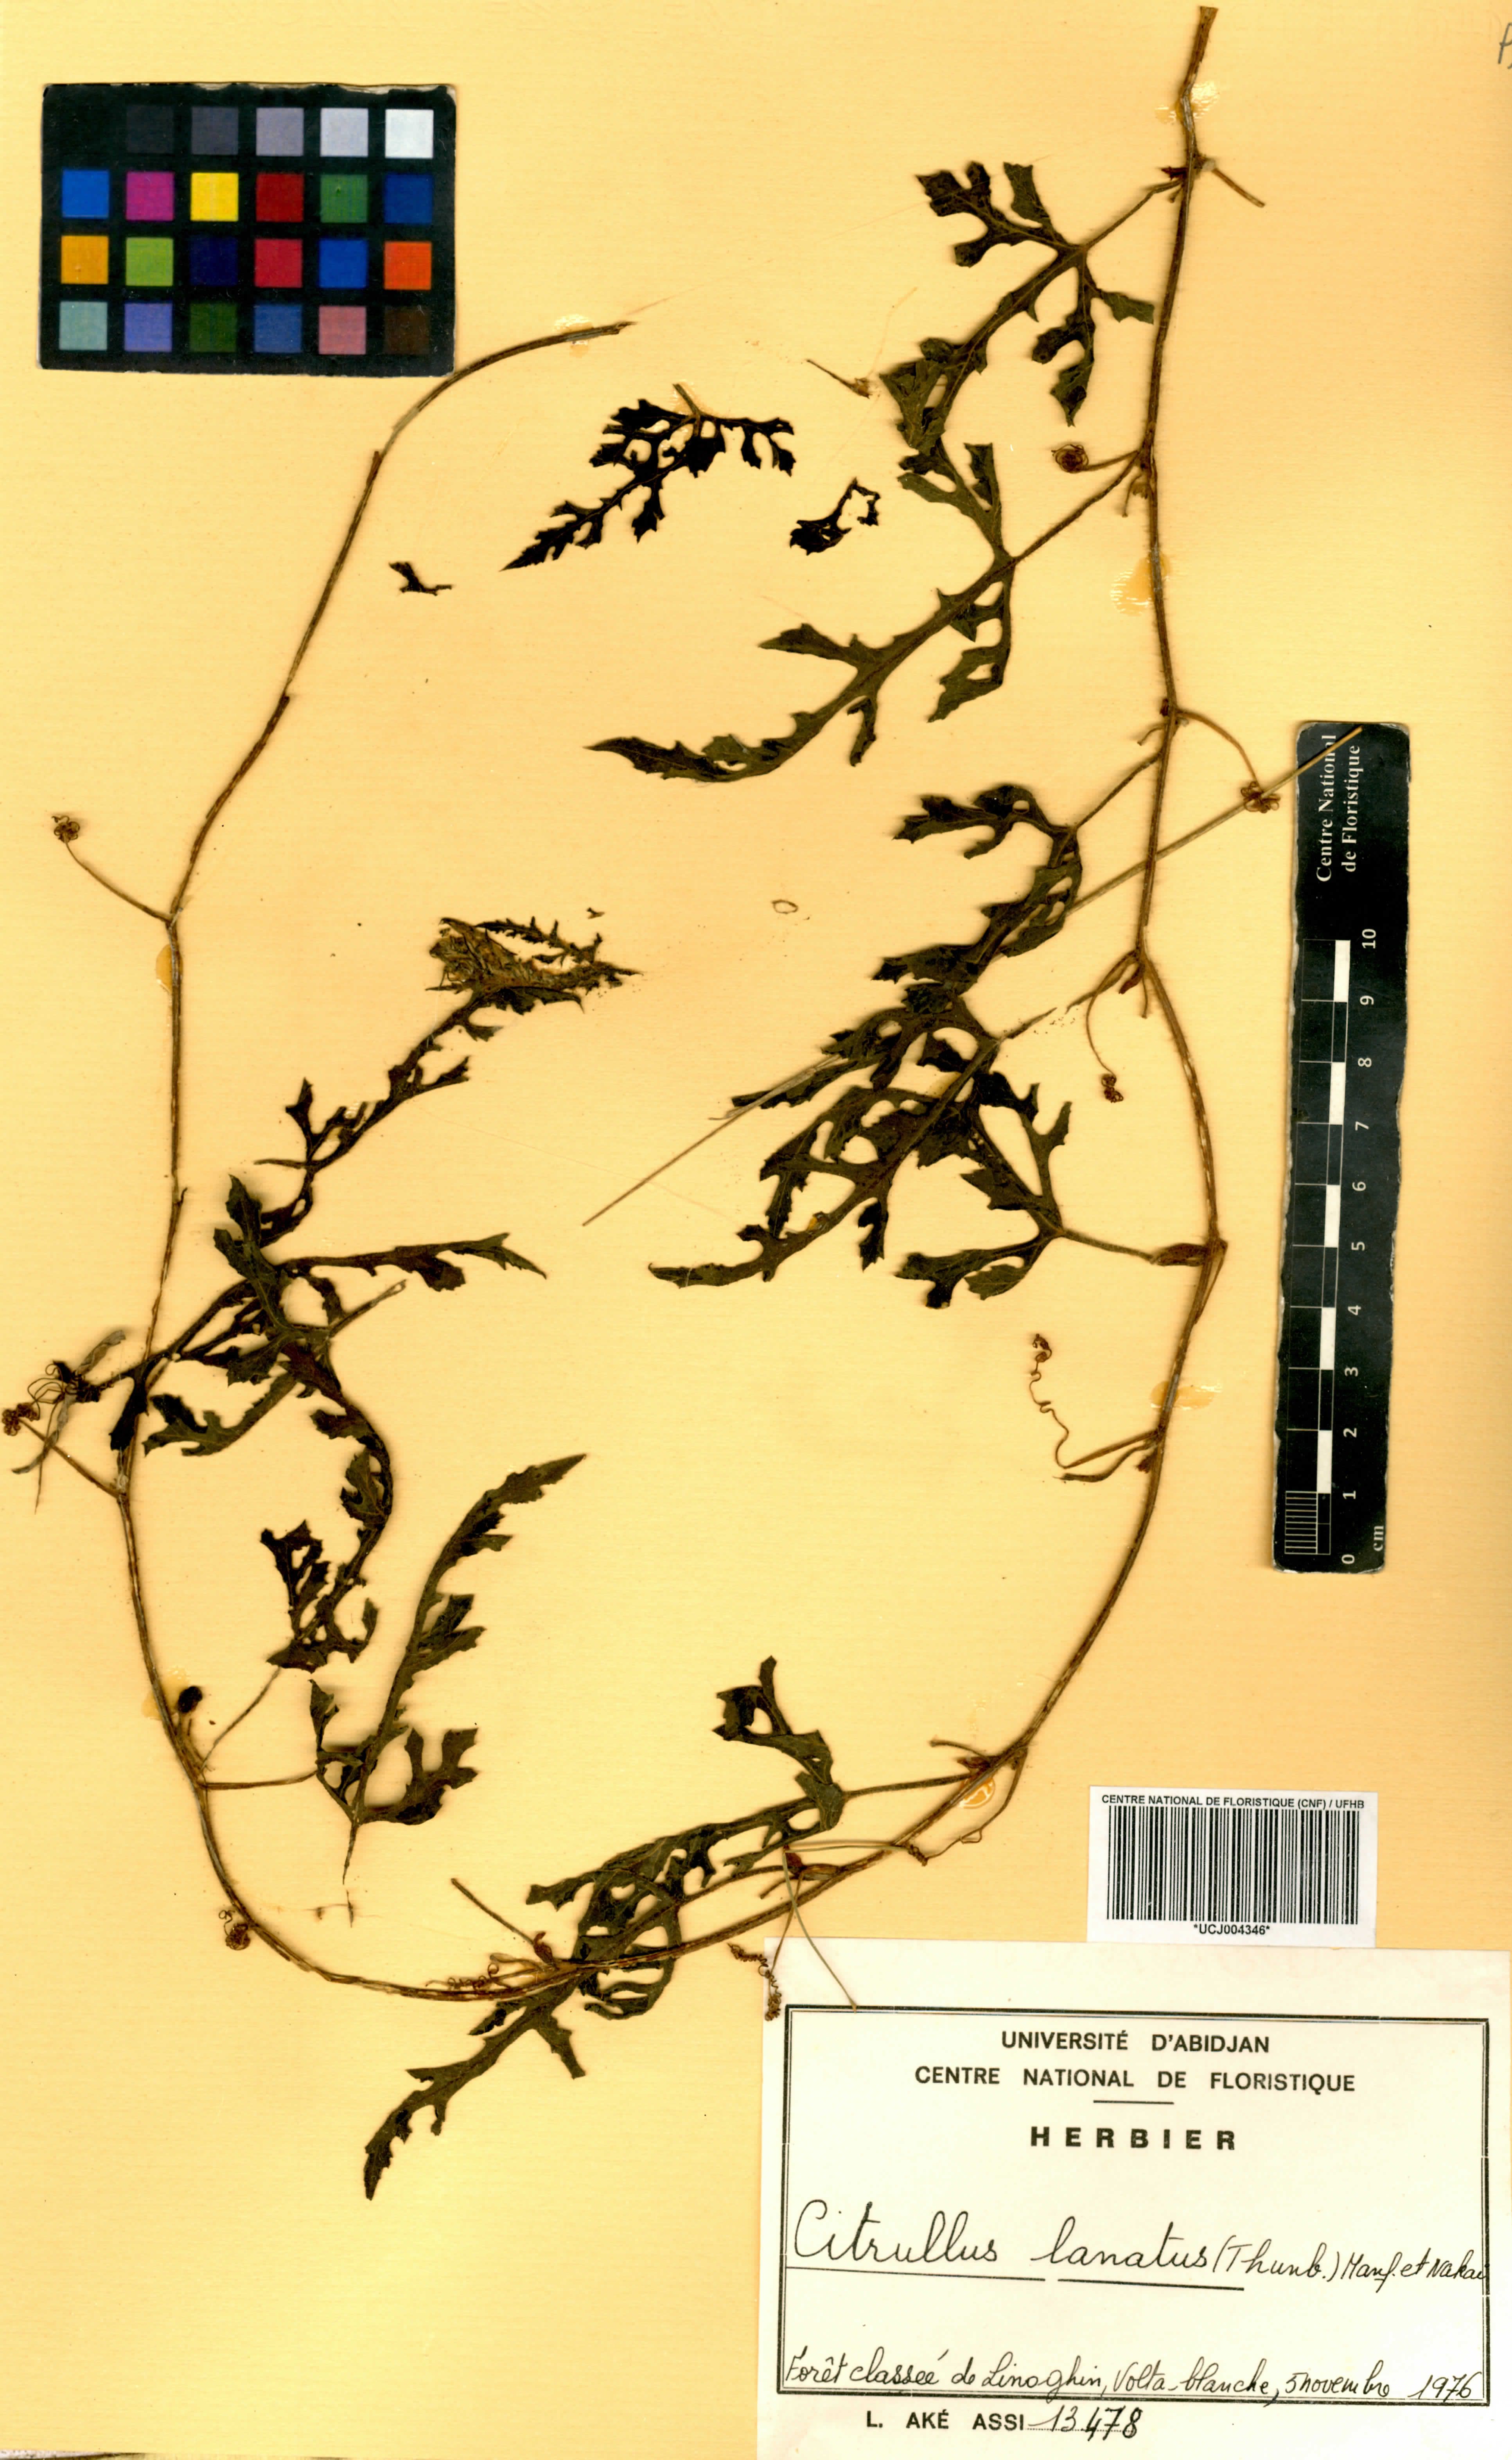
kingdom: Plantae
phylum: Tracheophyta
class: Magnoliopsida
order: Cucurbitales
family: Cucurbitaceae
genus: Citrullus
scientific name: Citrullus lanatus
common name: Watermelon
